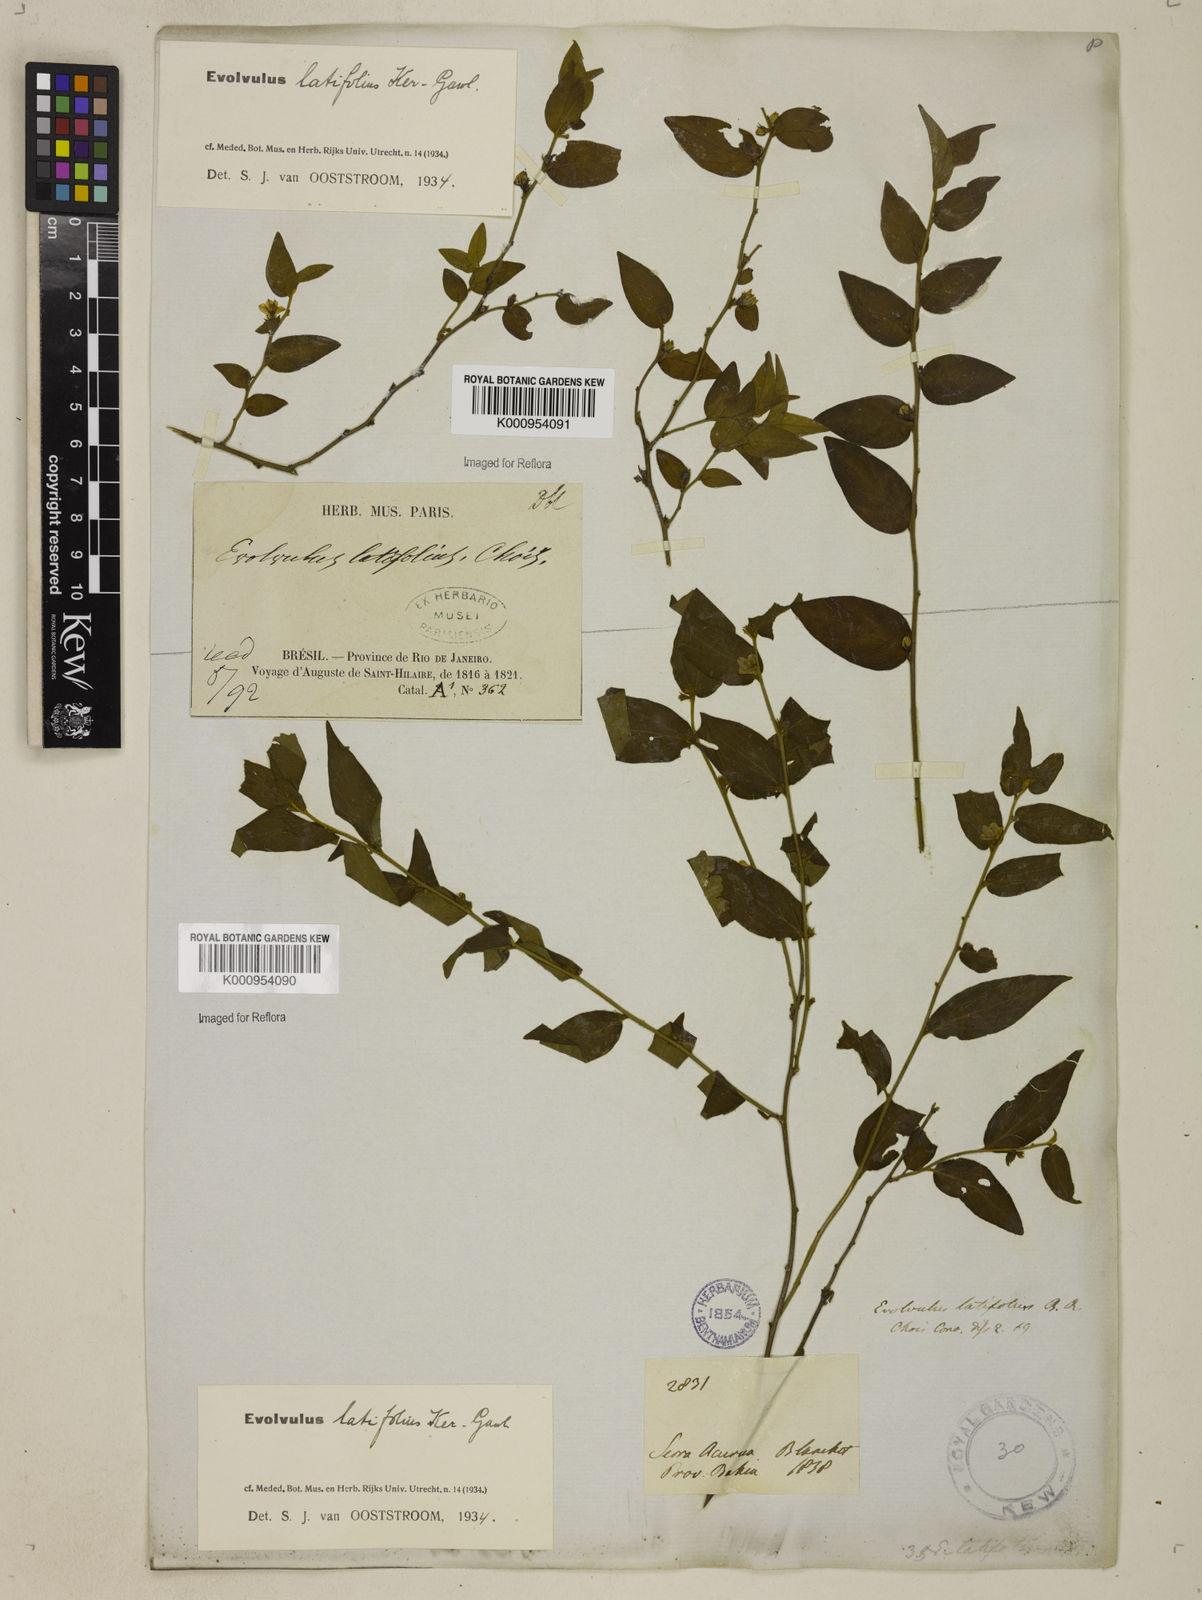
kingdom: Plantae
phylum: Tracheophyta
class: Magnoliopsida
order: Solanales
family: Convolvulaceae
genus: Evolvulus
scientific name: Evolvulus latifolius
